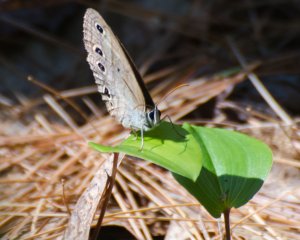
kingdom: Animalia
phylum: Arthropoda
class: Insecta
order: Lepidoptera
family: Nymphalidae
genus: Euptychia
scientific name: Euptychia cymela
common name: Little Wood Satyr
